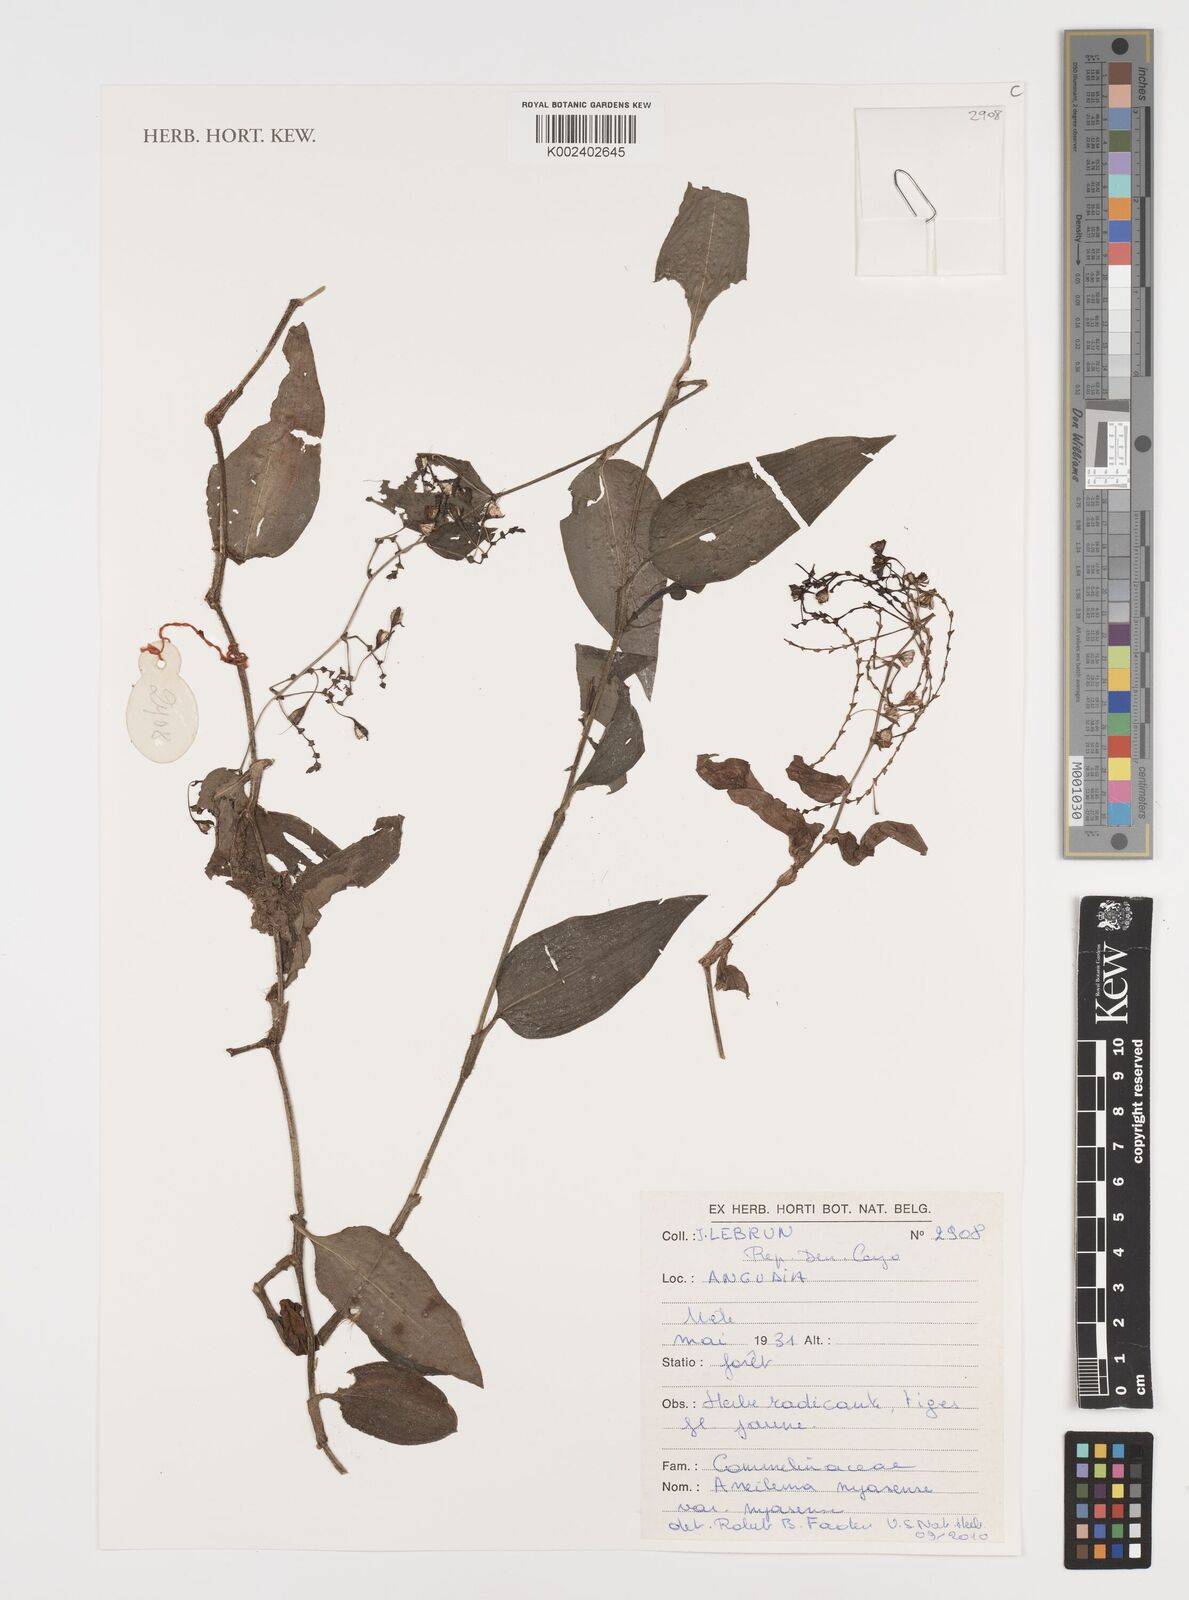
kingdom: Plantae
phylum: Tracheophyta
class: Liliopsida
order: Commelinales
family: Commelinaceae
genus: Aneilema
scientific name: Aneilema nyasense
